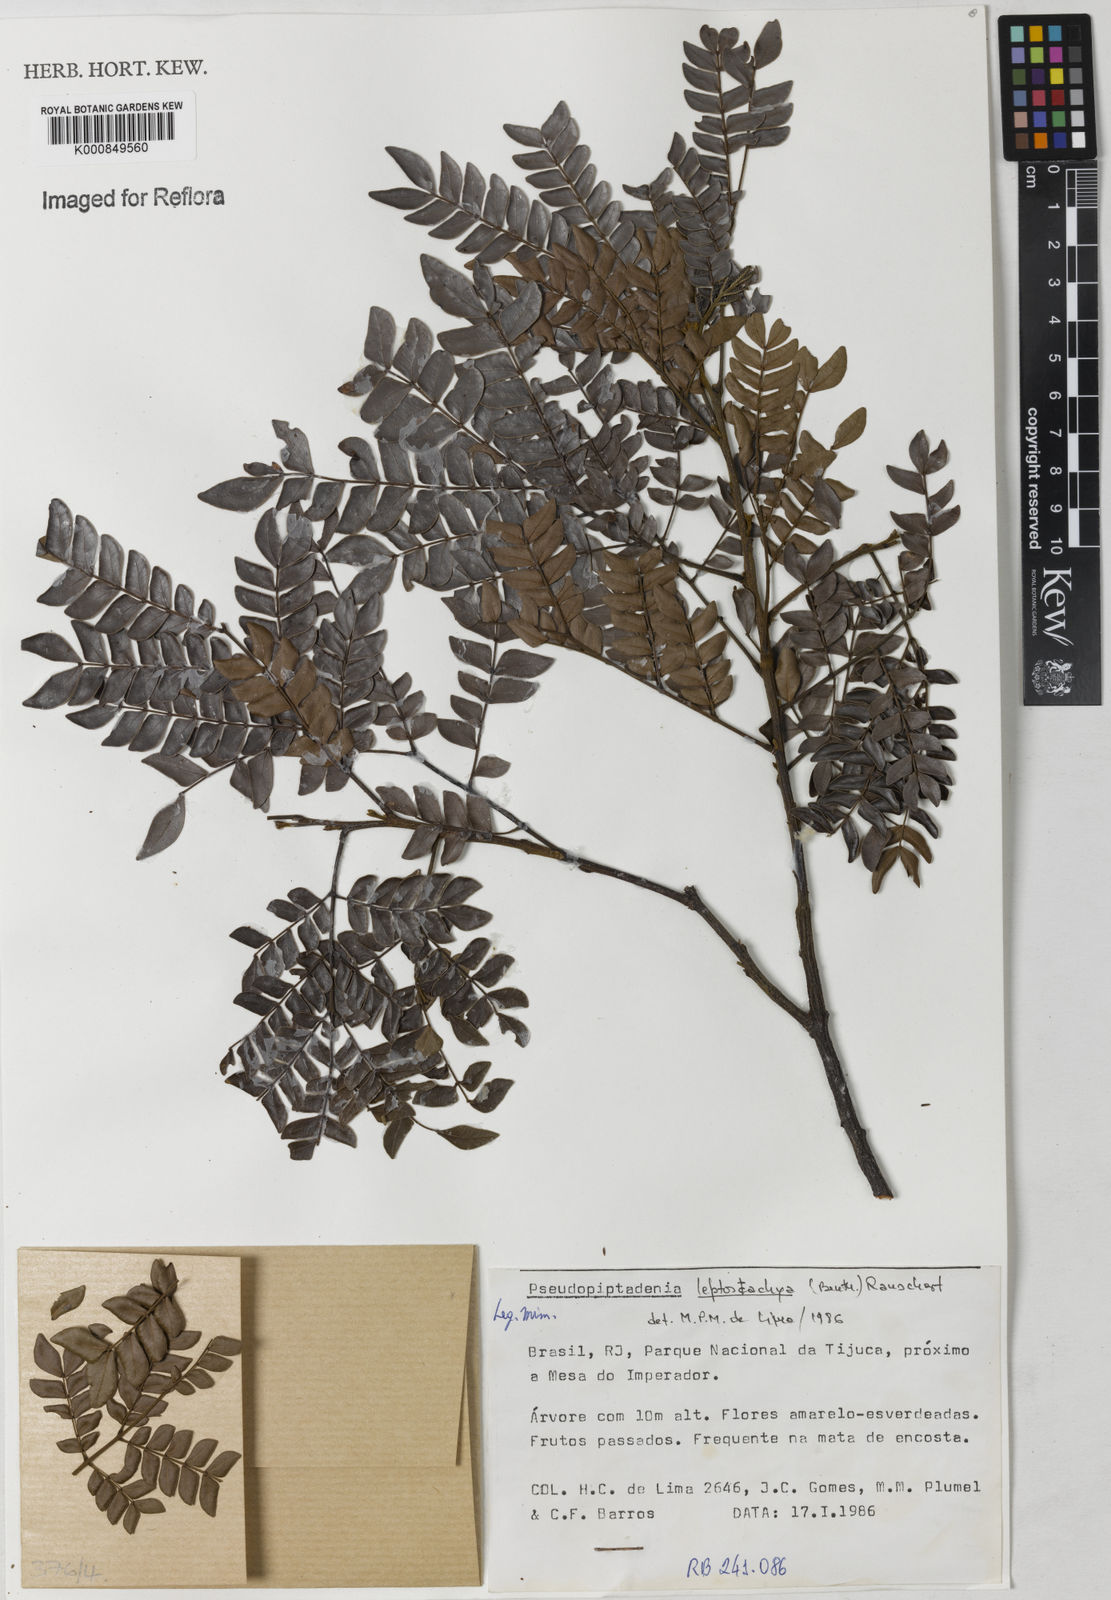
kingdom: Plantae
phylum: Tracheophyta
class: Magnoliopsida
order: Fabales
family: Fabaceae
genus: Pseudopiptadenia
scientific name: Pseudopiptadenia leptostachya
